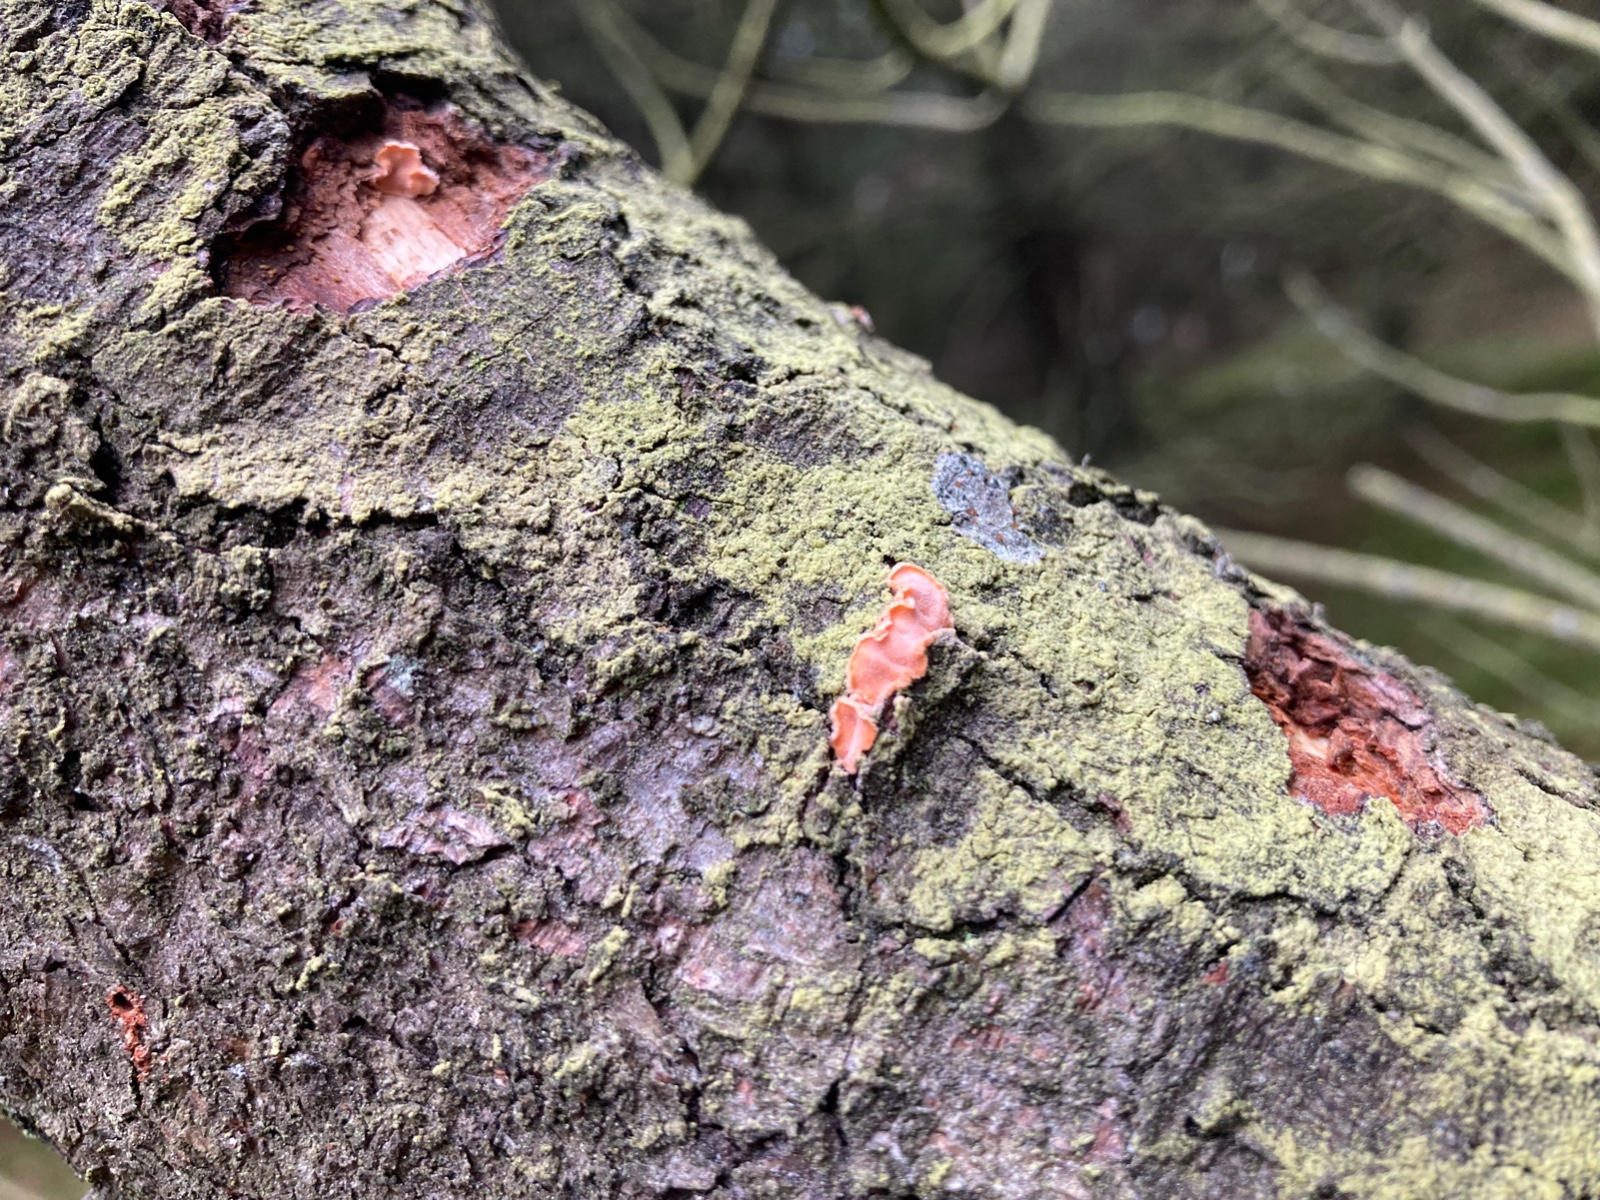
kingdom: Fungi
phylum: Basidiomycota
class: Agaricomycetes
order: Russulales
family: Stereaceae
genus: Aleurodiscus
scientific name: Aleurodiscus amorphus
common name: orange skiveskorpe
